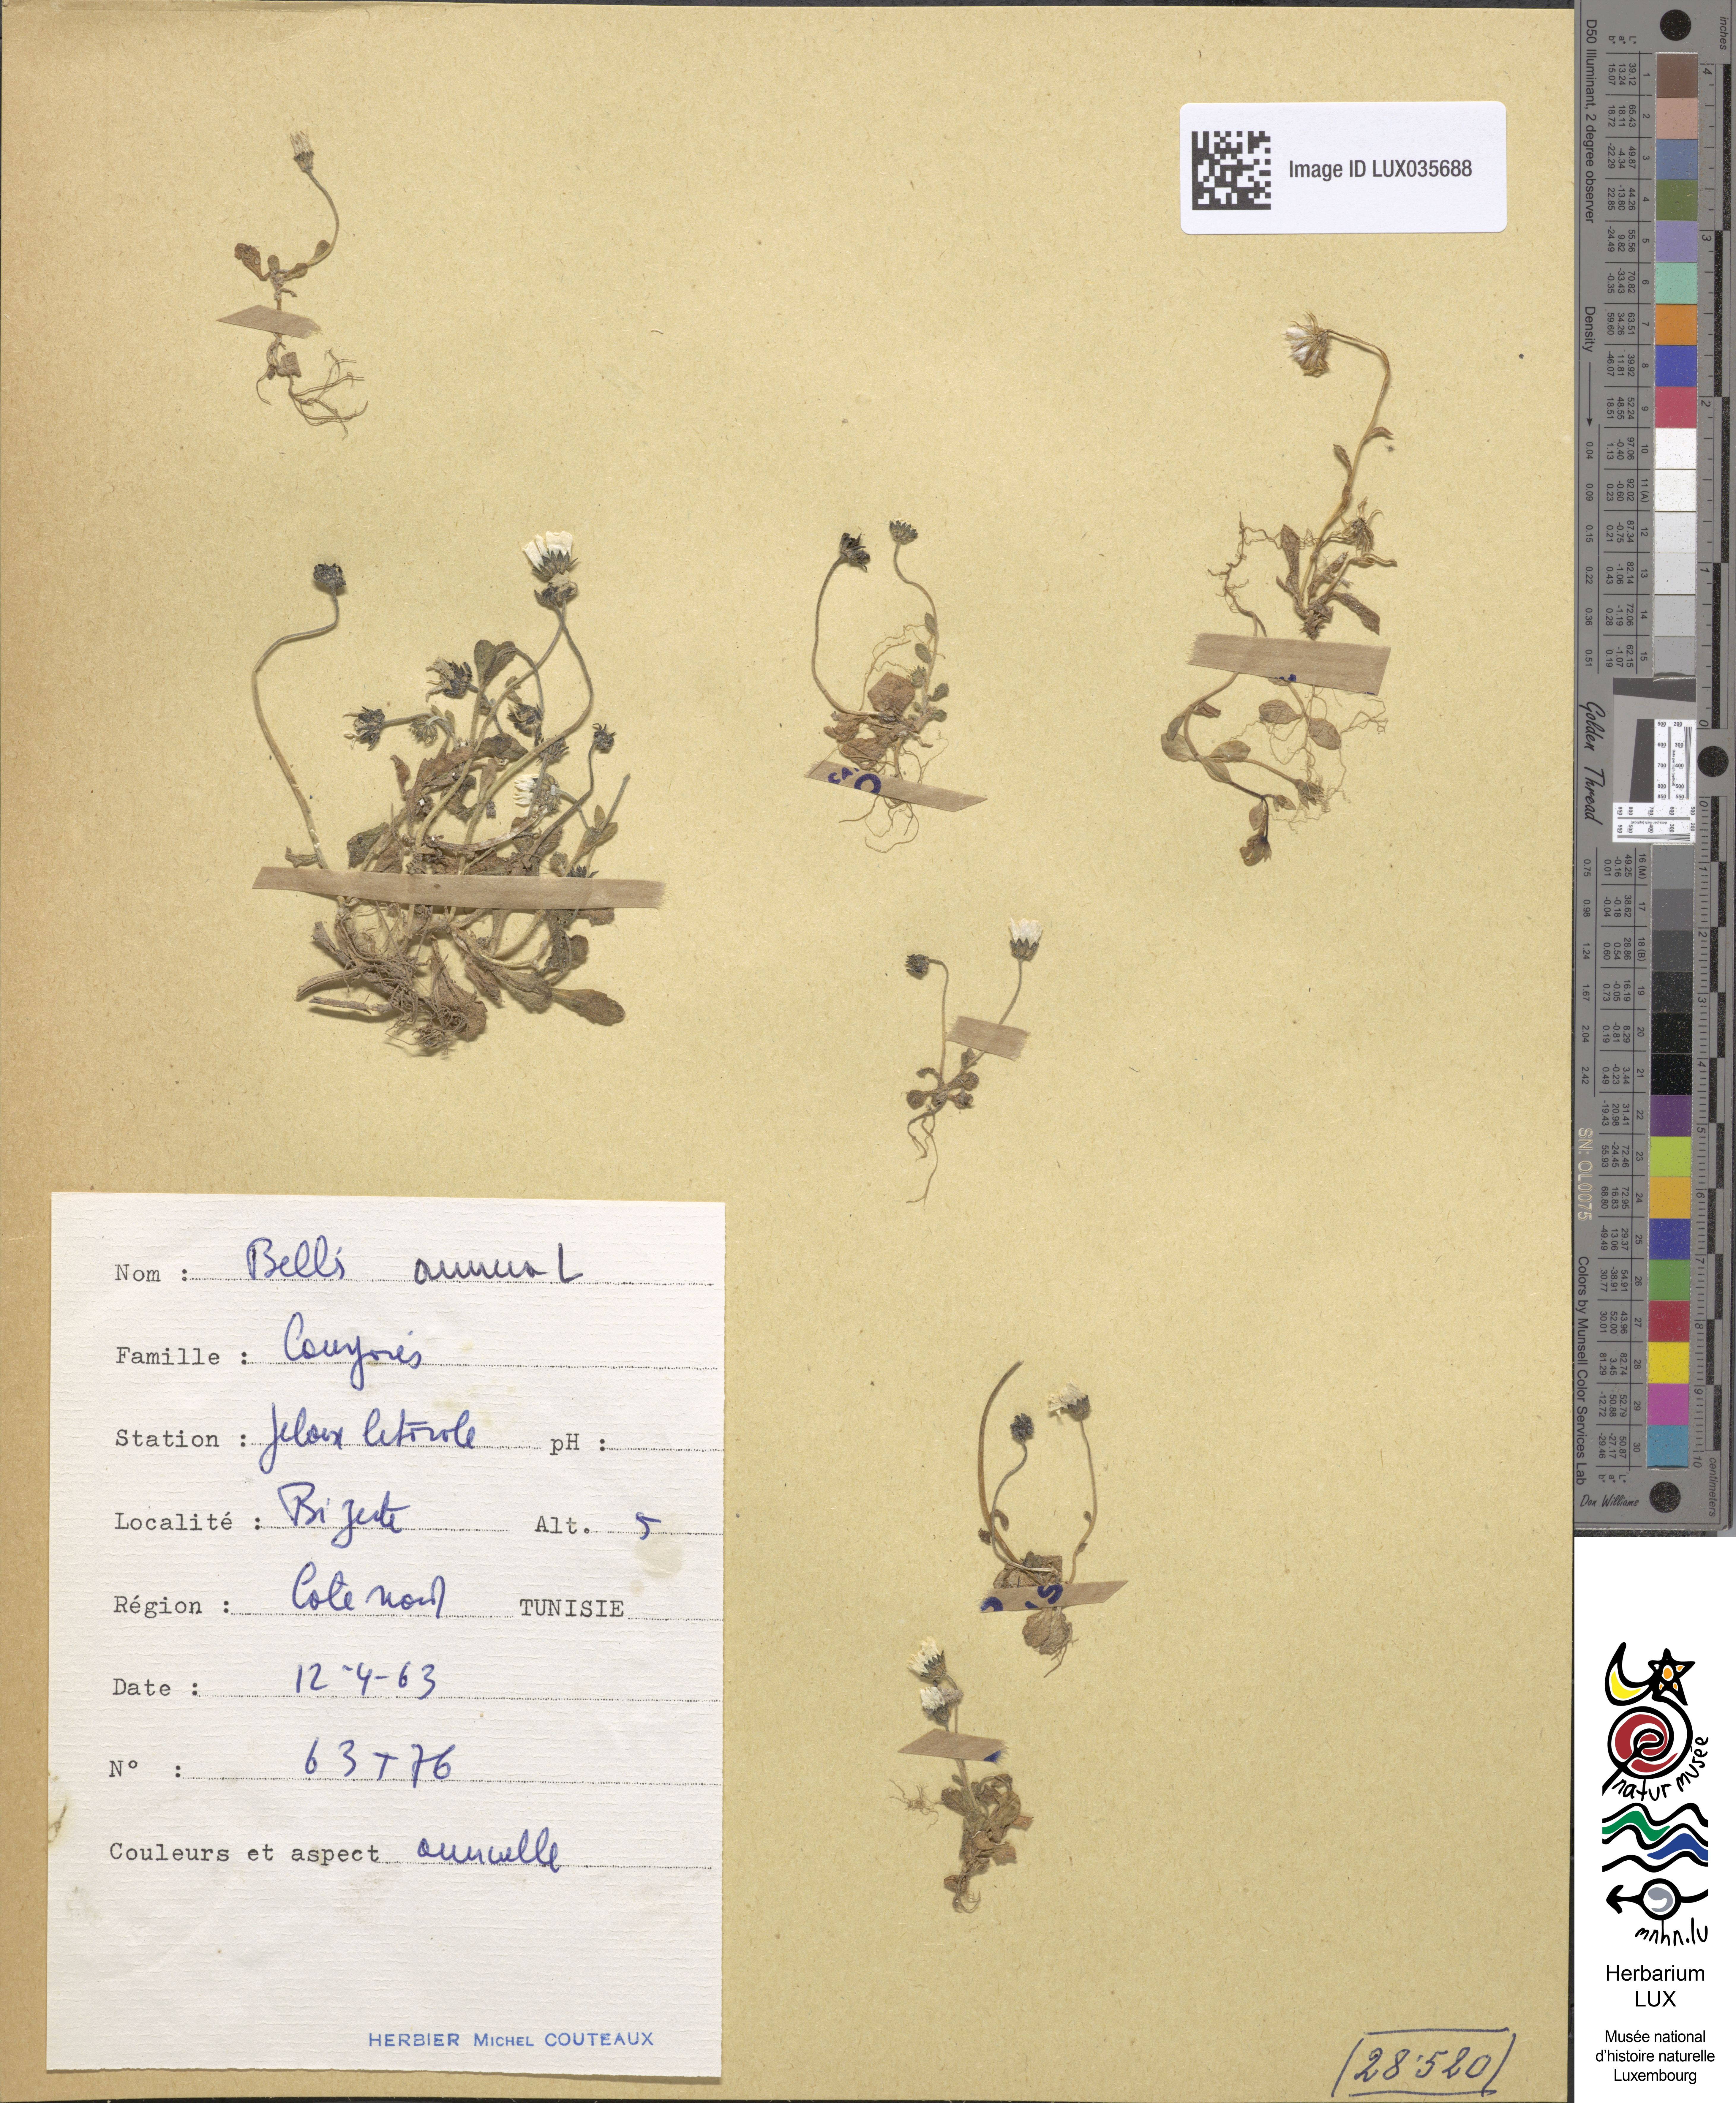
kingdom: Plantae
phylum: Tracheophyta
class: Magnoliopsida
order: Asterales
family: Asteraceae
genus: Bellis
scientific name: Bellis annua
